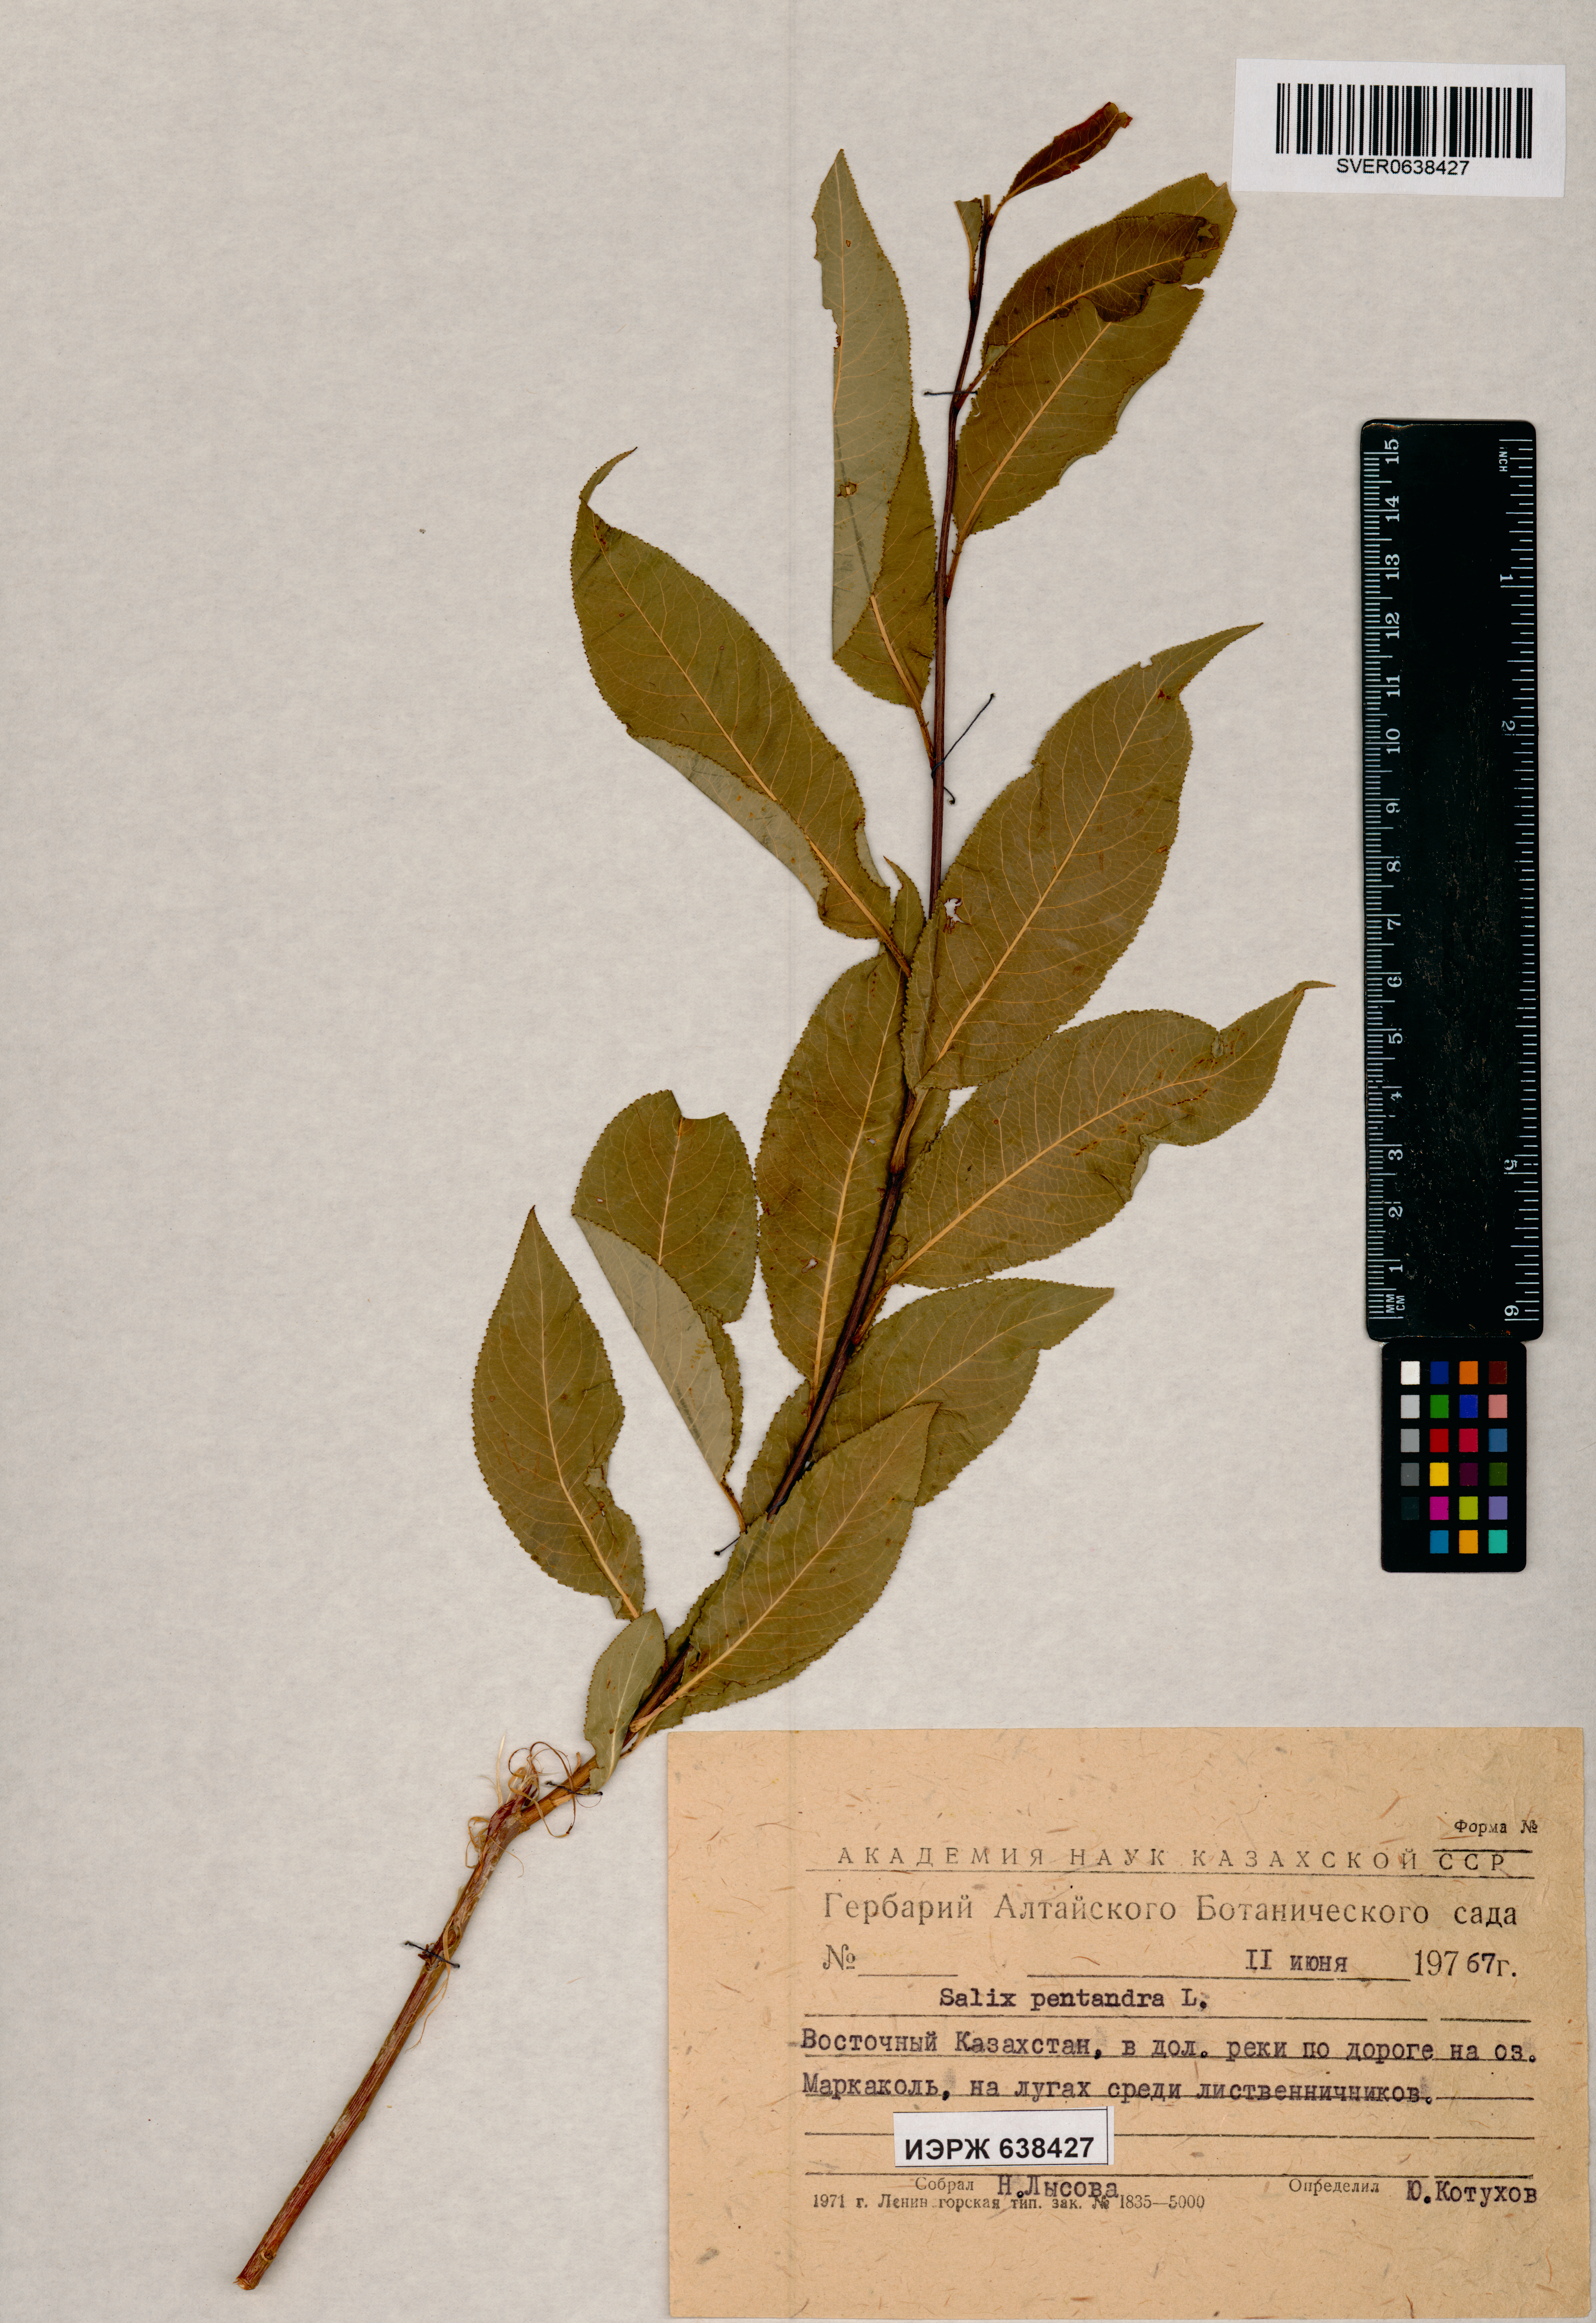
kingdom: Plantae
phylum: Tracheophyta
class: Magnoliopsida
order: Malpighiales
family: Salicaceae
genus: Salix
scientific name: Salix pentandra
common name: Bay willow
